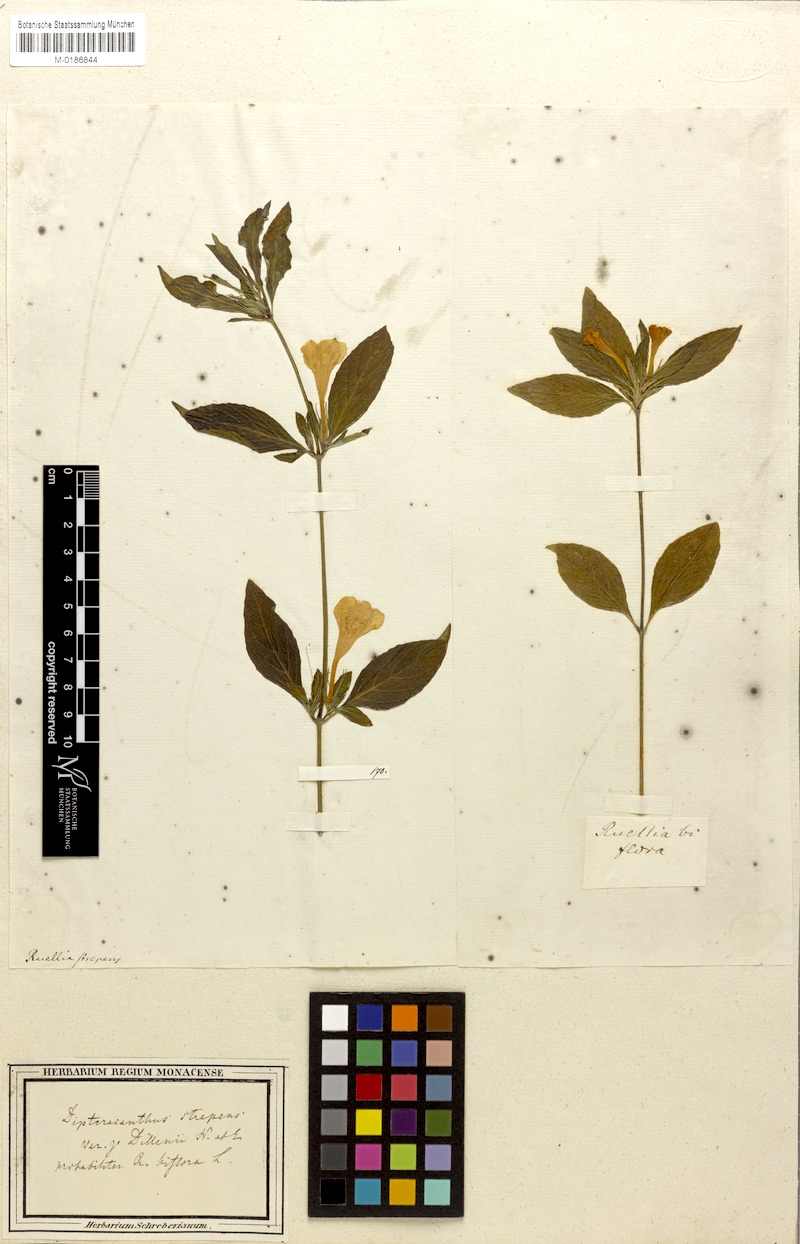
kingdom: Plantae
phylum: Tracheophyta
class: Magnoliopsida
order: Lamiales
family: Acanthaceae
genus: Ruellia
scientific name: Ruellia strepens
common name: Limestone wild petunia
